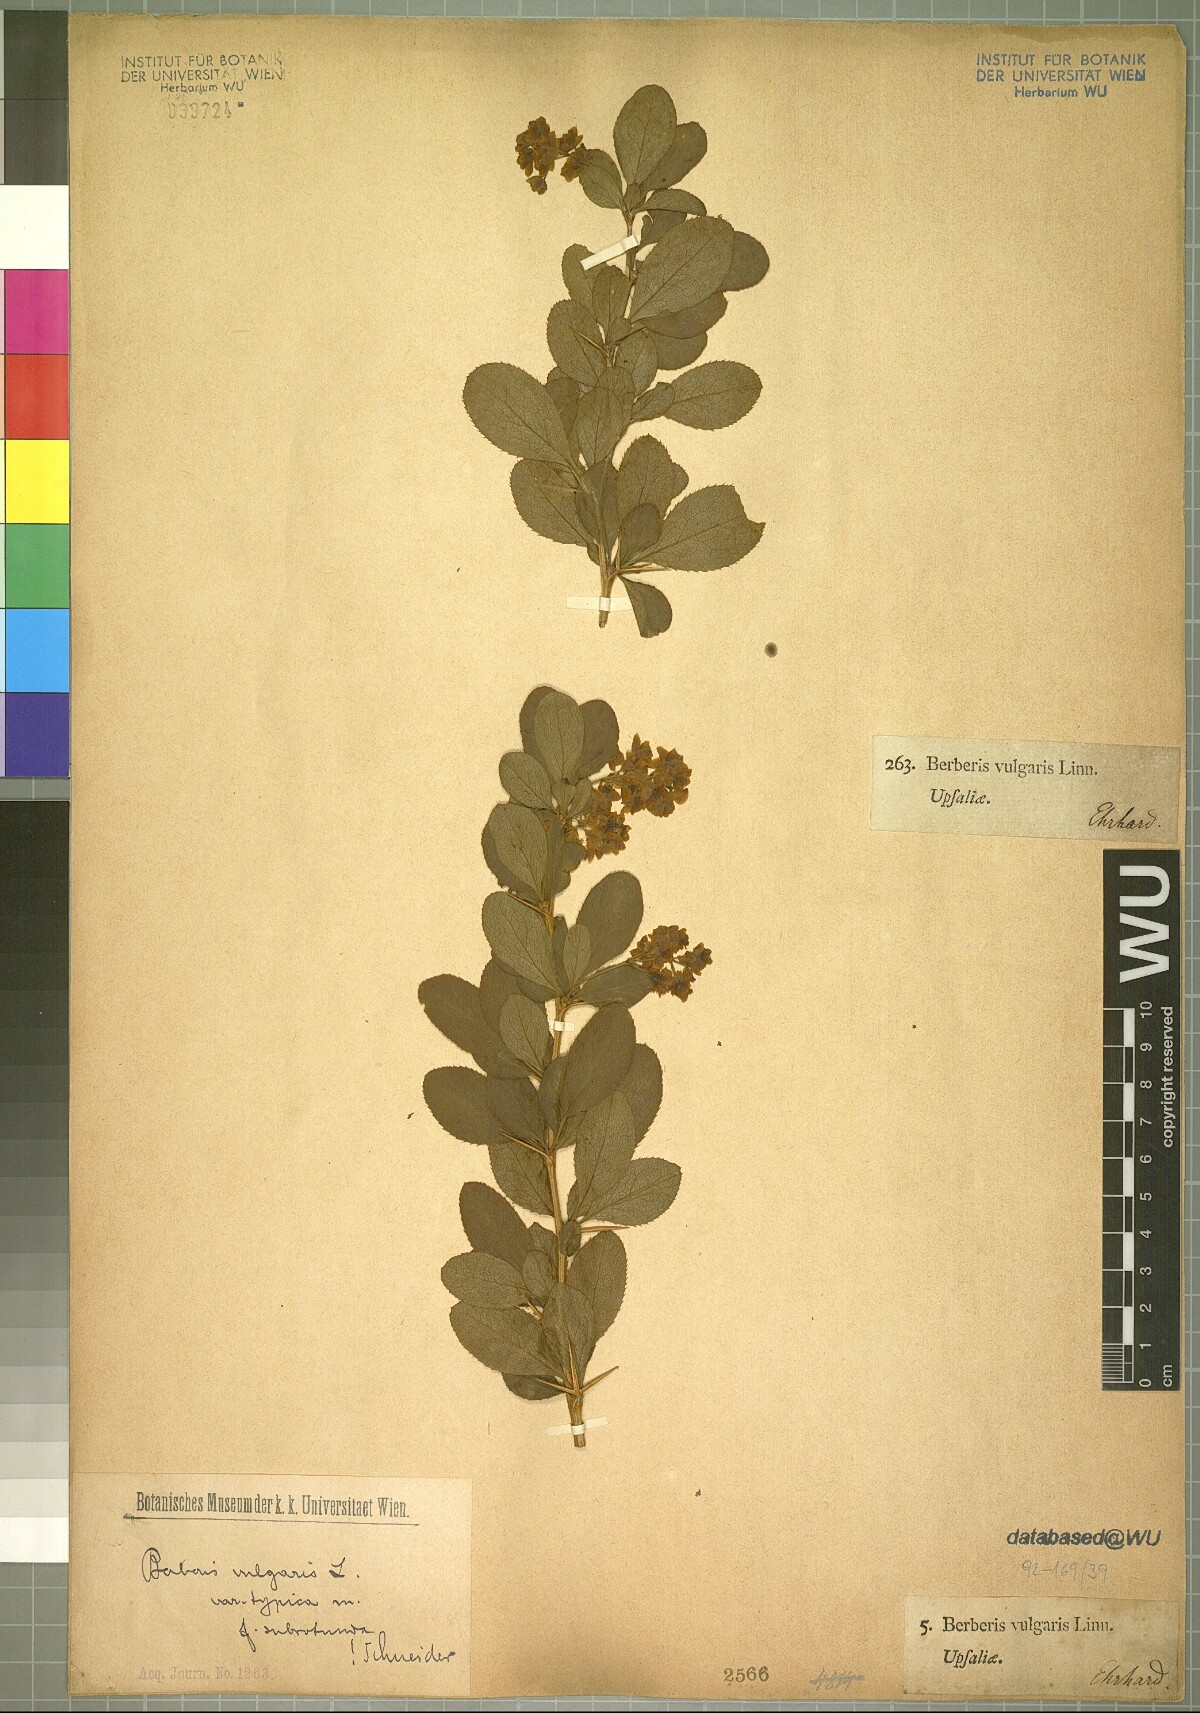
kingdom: Plantae
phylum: Tracheophyta
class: Magnoliopsida
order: Ranunculales
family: Berberidaceae
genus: Berberis
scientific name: Berberis vulgaris
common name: Barberry
